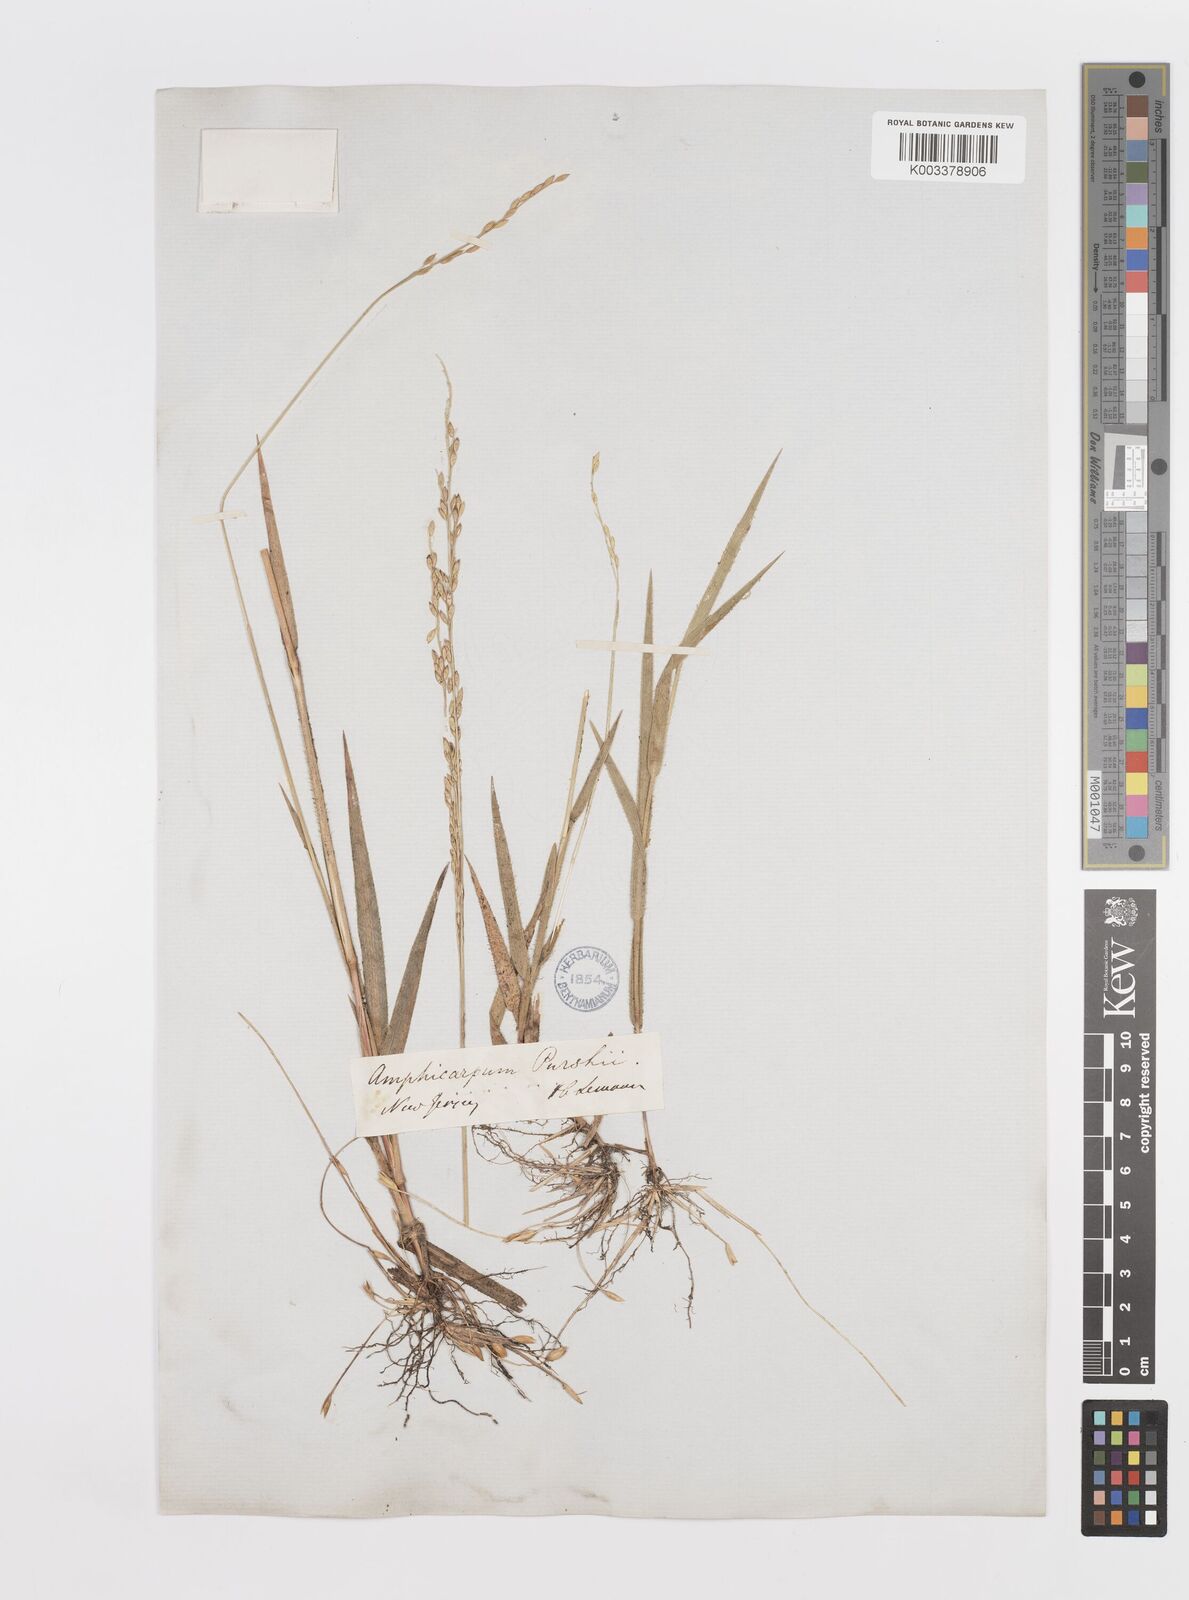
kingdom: Plantae
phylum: Tracheophyta
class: Liliopsida
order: Poales
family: Poaceae
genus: Amphicarpum
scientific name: Amphicarpum amphicarpon
